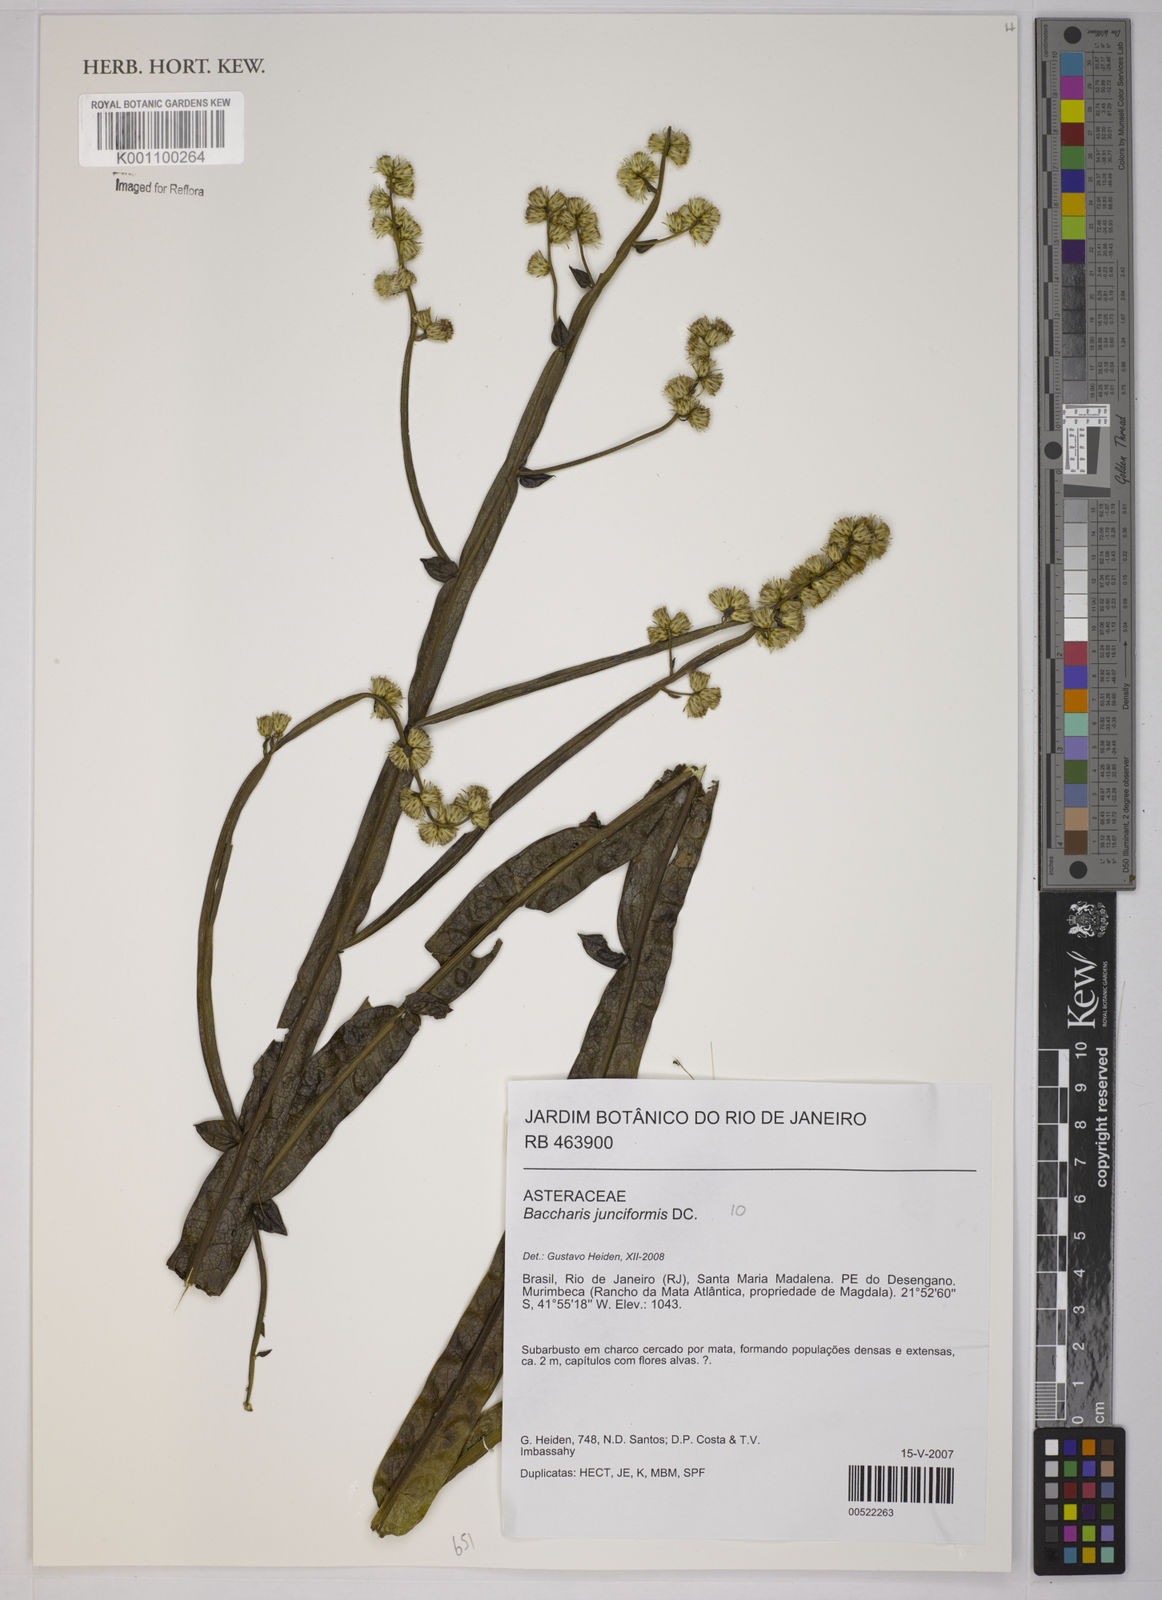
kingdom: Plantae
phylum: Tracheophyta
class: Magnoliopsida
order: Asterales
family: Asteraceae
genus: Baccharis
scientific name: Baccharis junciformis
